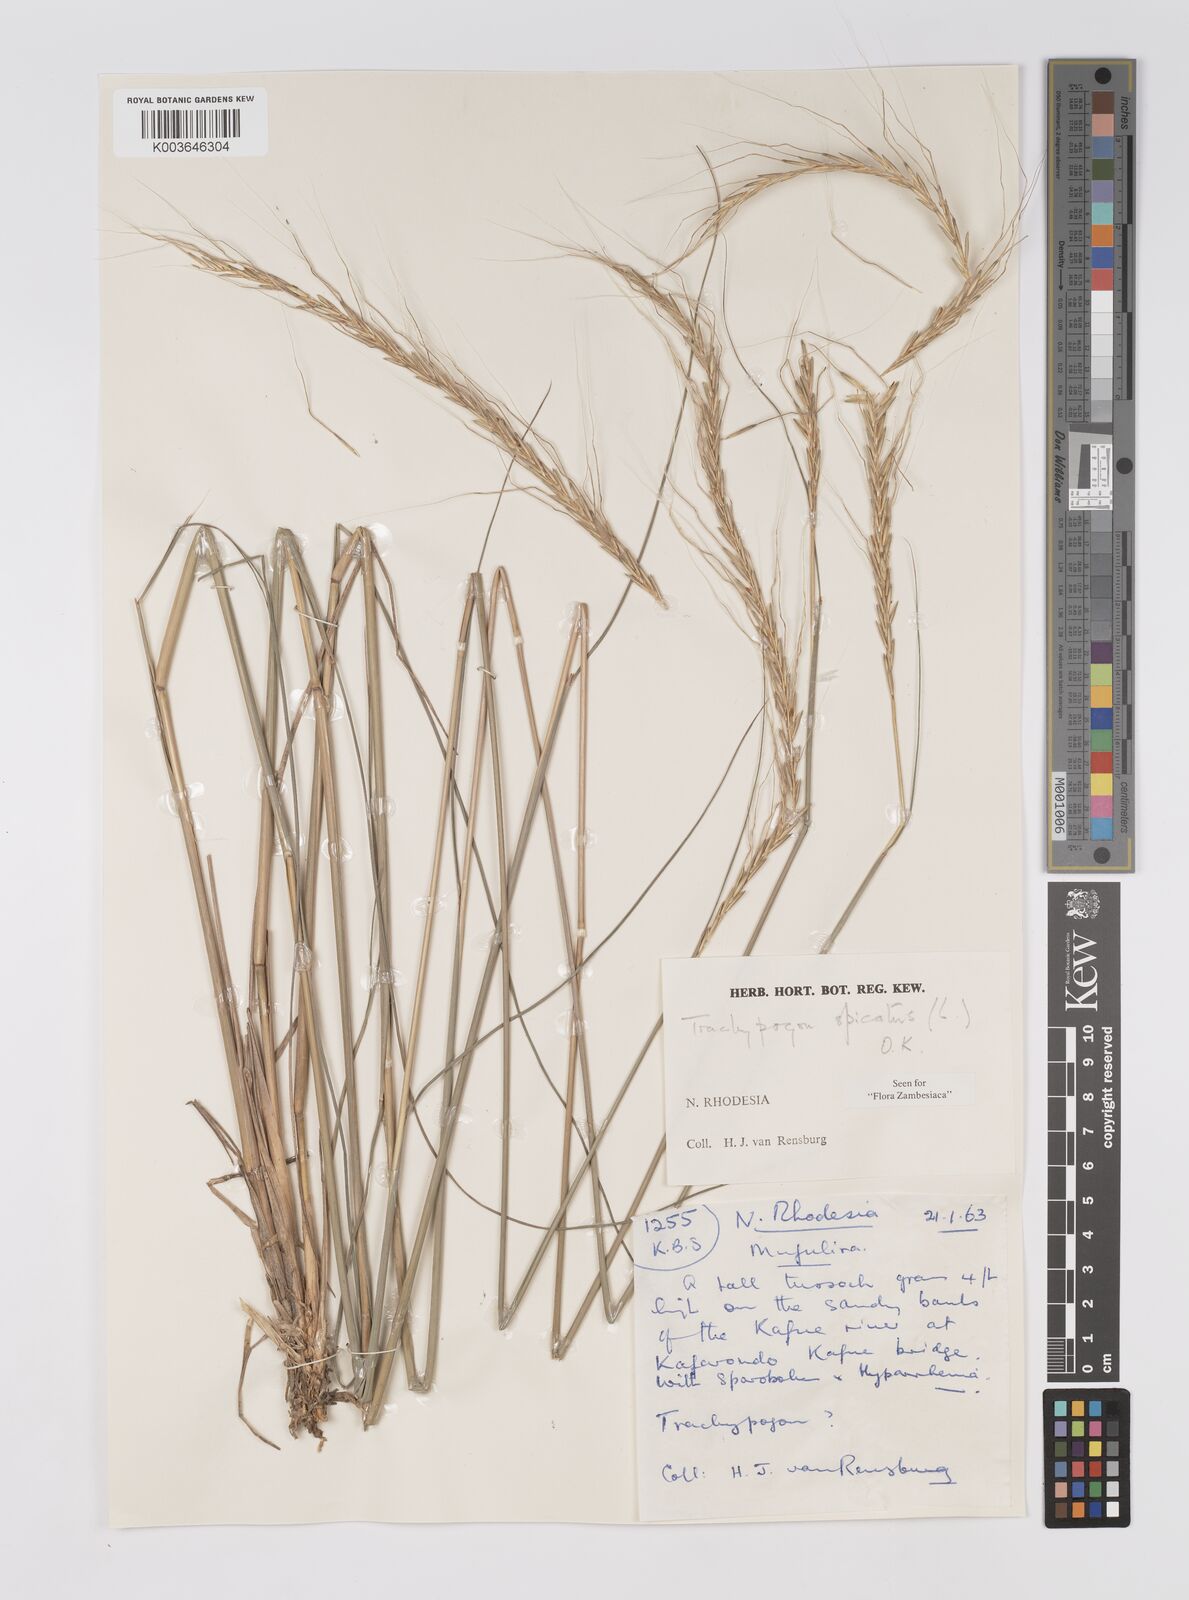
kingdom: Plantae
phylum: Tracheophyta
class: Liliopsida
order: Poales
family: Poaceae
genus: Trachypogon
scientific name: Trachypogon spicatus
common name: Crinkle-awn
